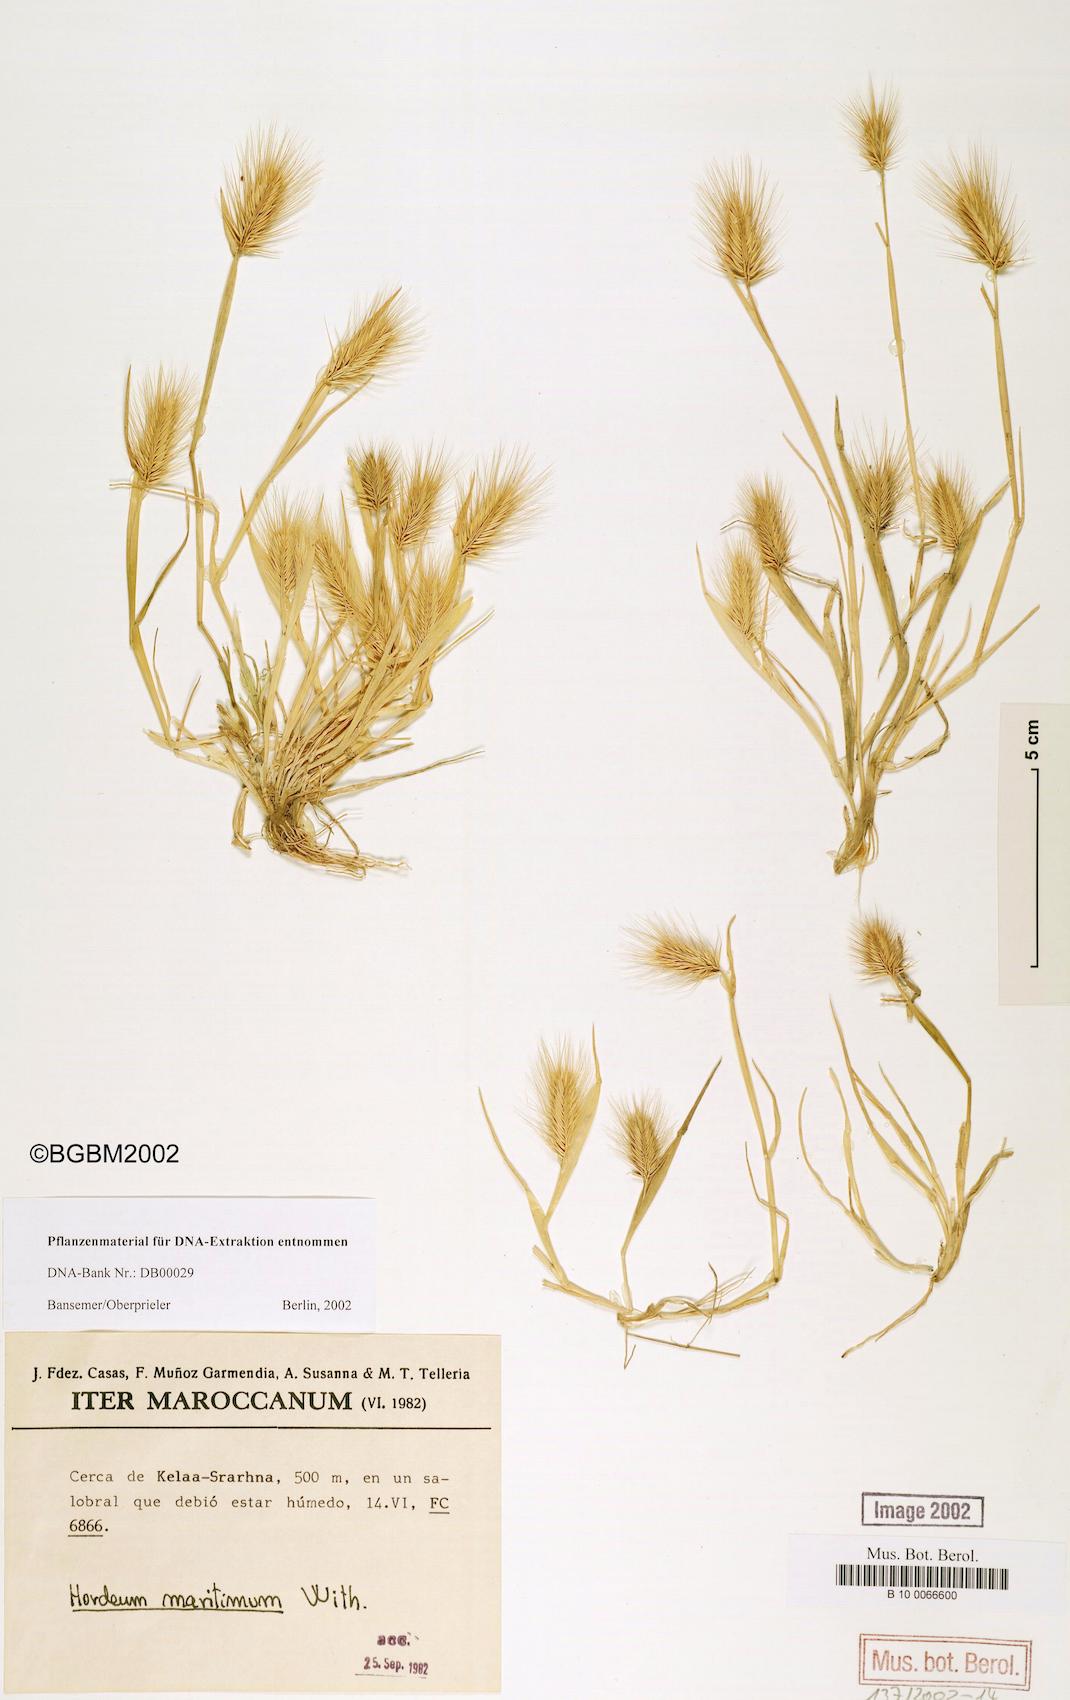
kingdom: Plantae
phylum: Tracheophyta
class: Liliopsida
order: Poales
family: Poaceae
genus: Hordeum
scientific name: Hordeum marinum
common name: Sea barley
